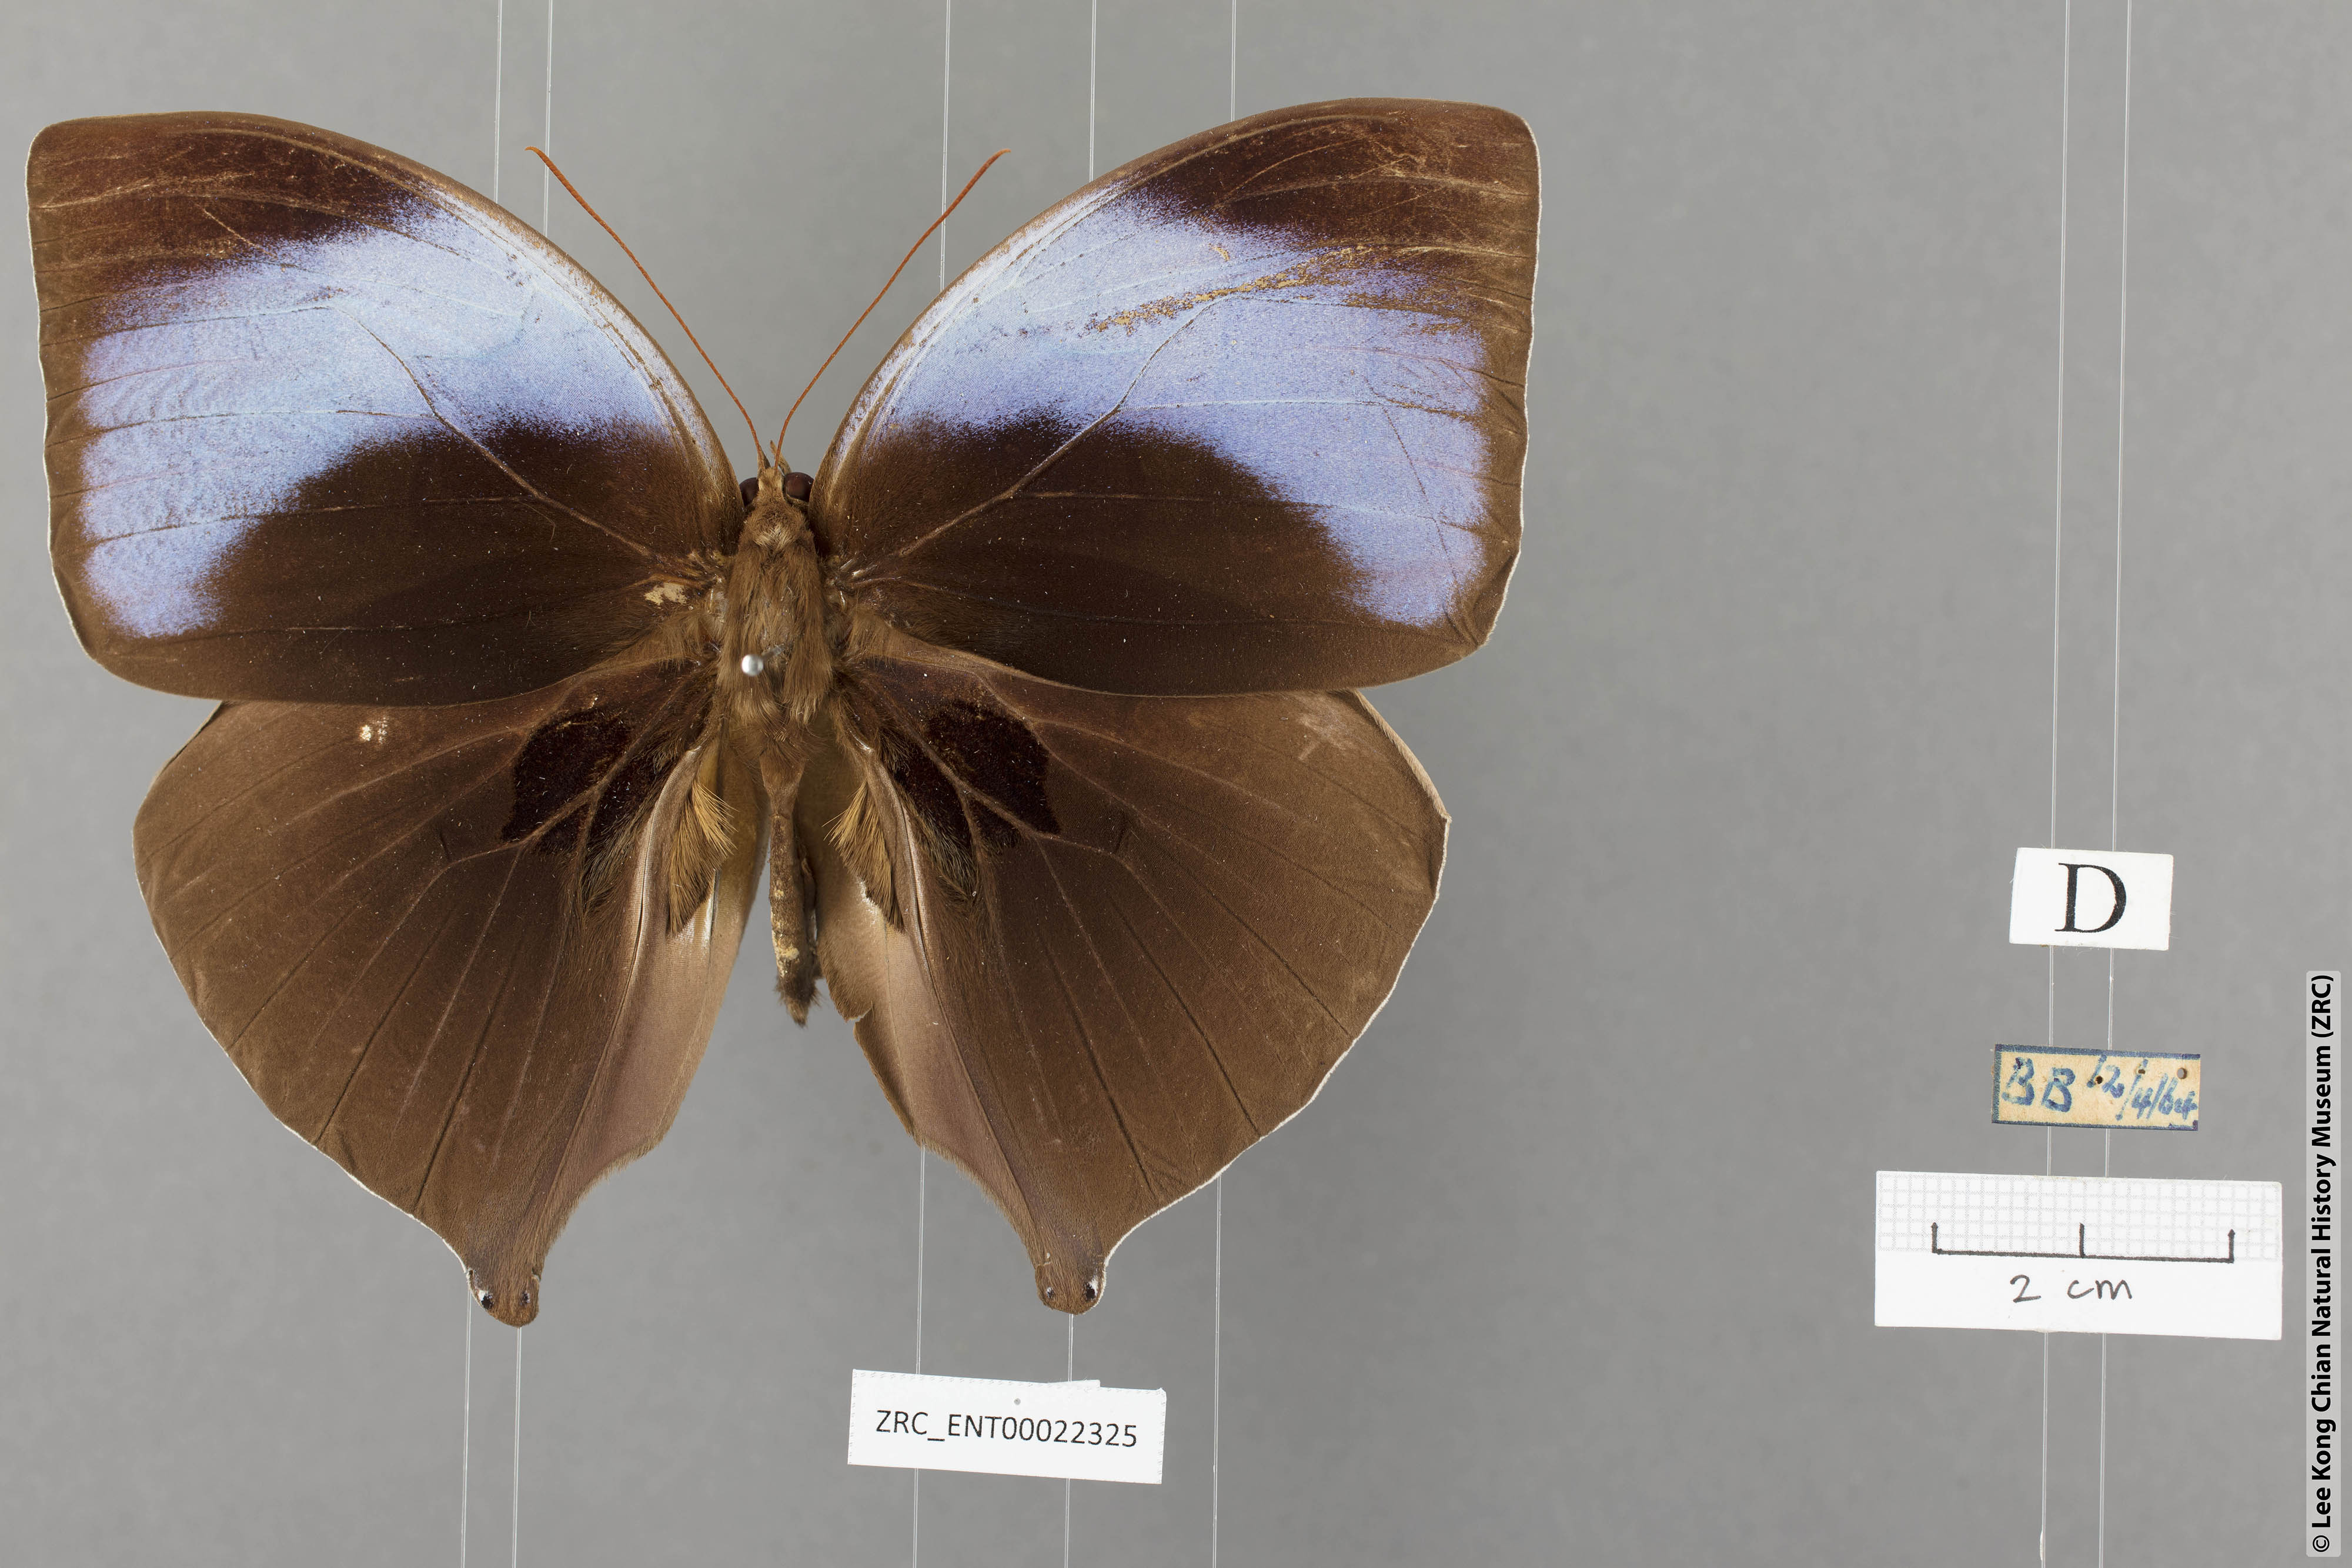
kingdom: Animalia
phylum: Arthropoda
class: Insecta
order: Lepidoptera
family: Nymphalidae
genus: Amathusia
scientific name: Amathusia
